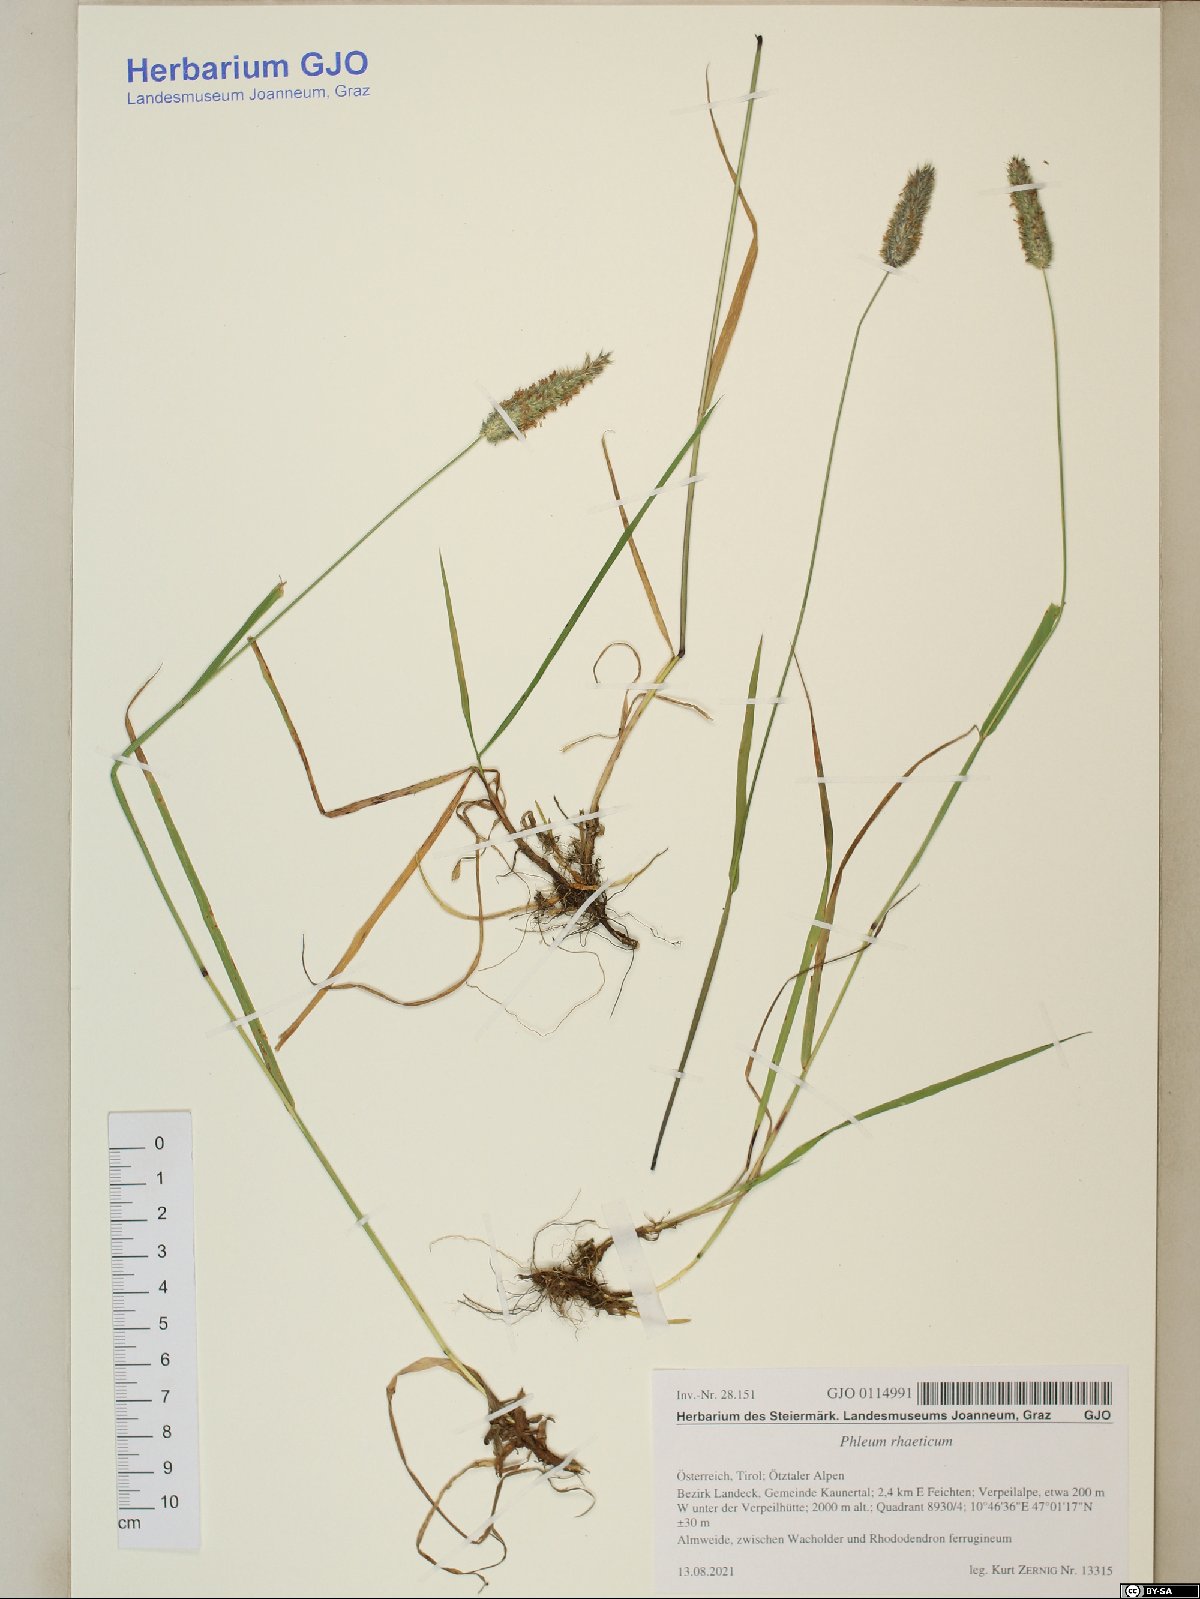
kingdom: Plantae
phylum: Tracheophyta
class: Liliopsida
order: Poales
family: Poaceae
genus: Phleum
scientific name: Phleum alpinum
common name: Alpine cat's-tail
